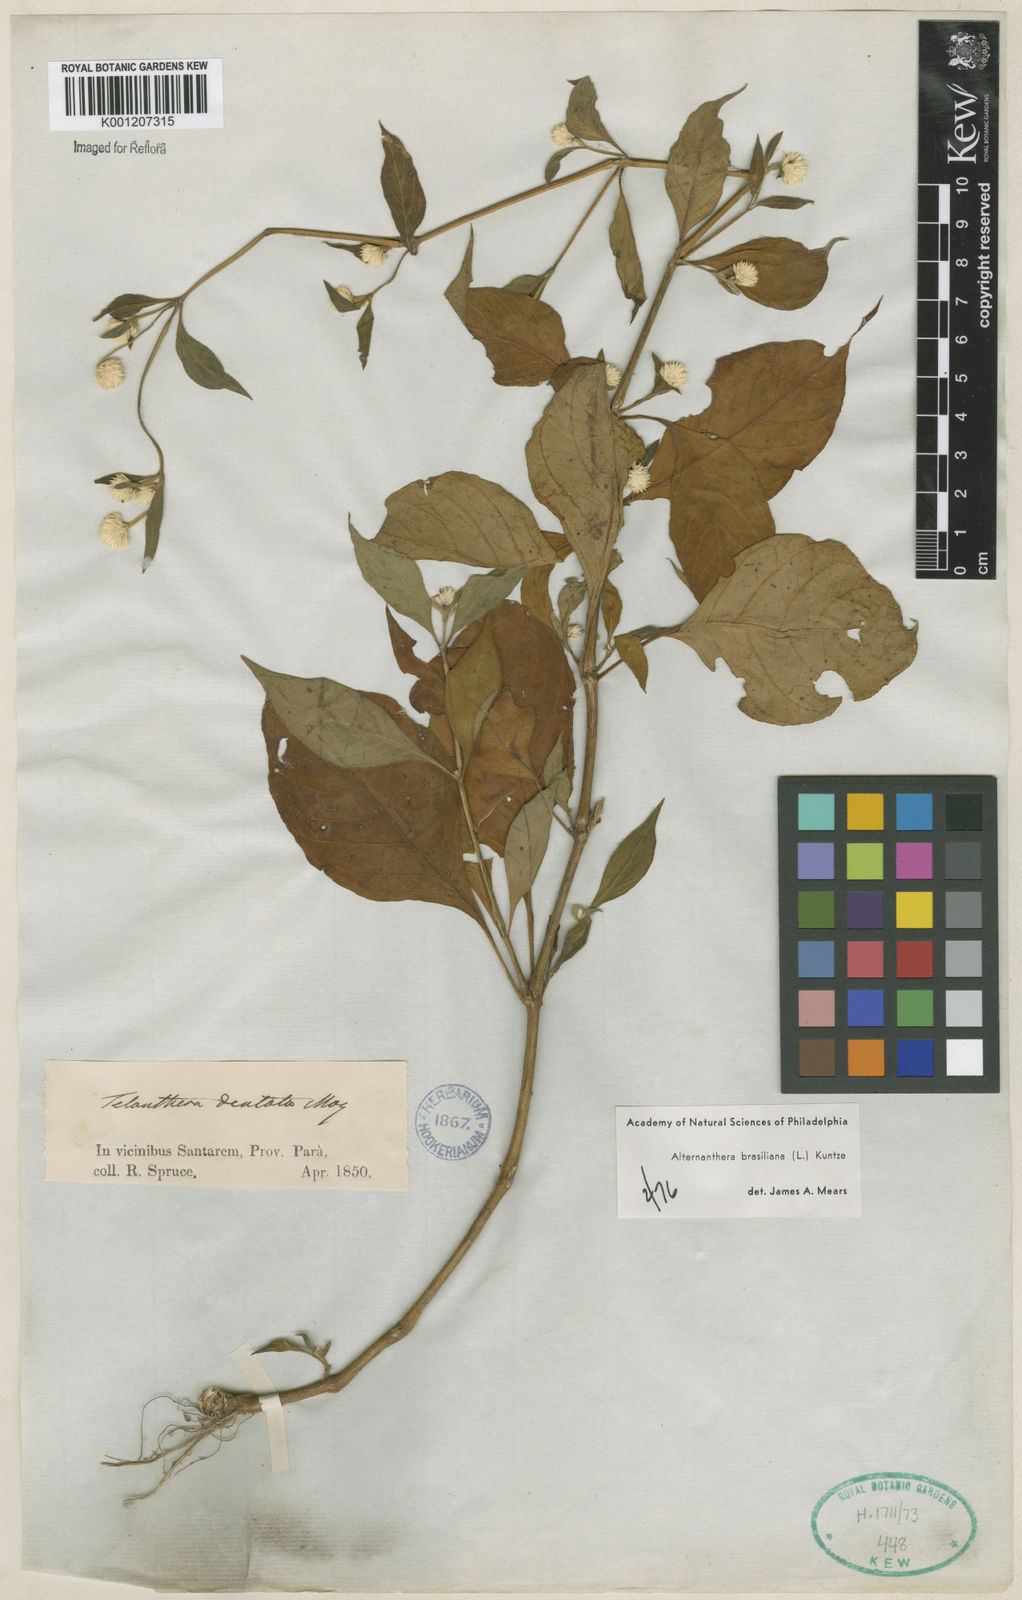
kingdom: Plantae
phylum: Tracheophyta
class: Magnoliopsida
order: Caryophyllales
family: Amaranthaceae
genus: Alternanthera
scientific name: Alternanthera brasiliana
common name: Brazilian joyweed
